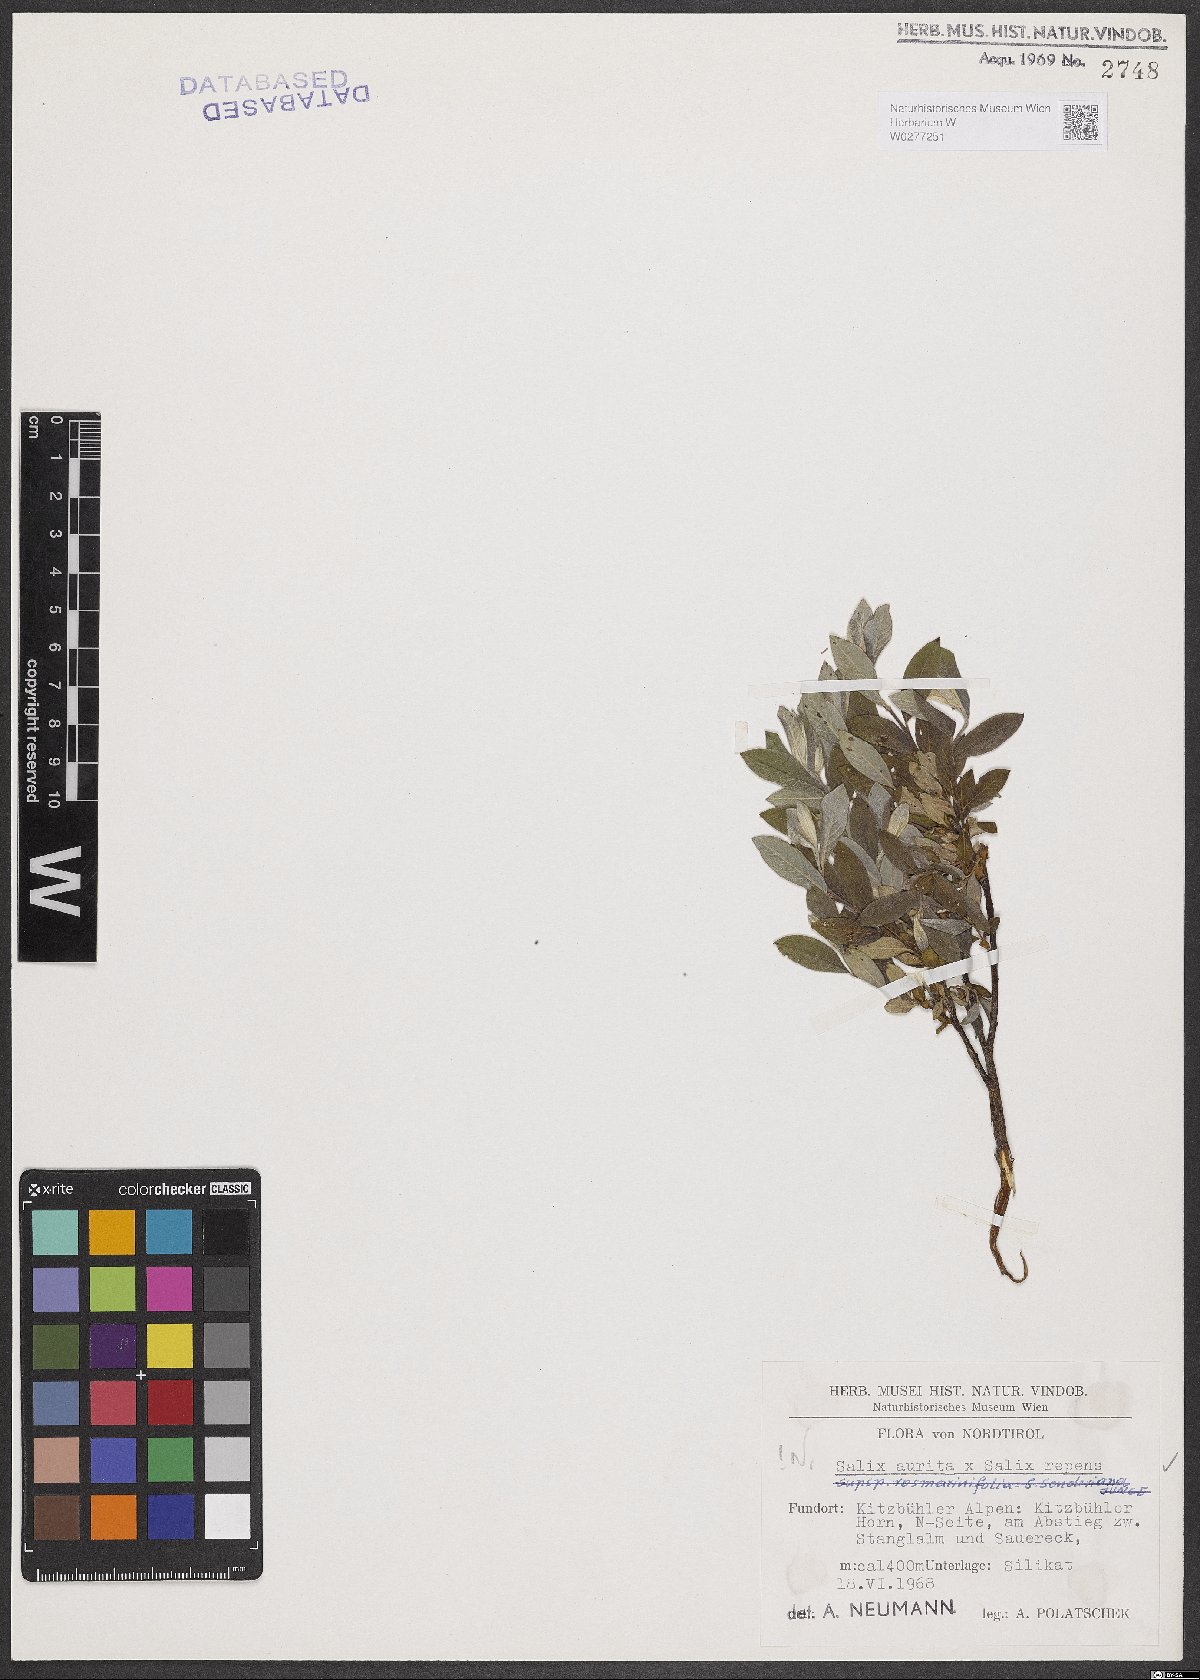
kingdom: Plantae
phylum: Tracheophyta
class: Magnoliopsida
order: Malpighiales
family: Salicaceae
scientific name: Salicaceae
